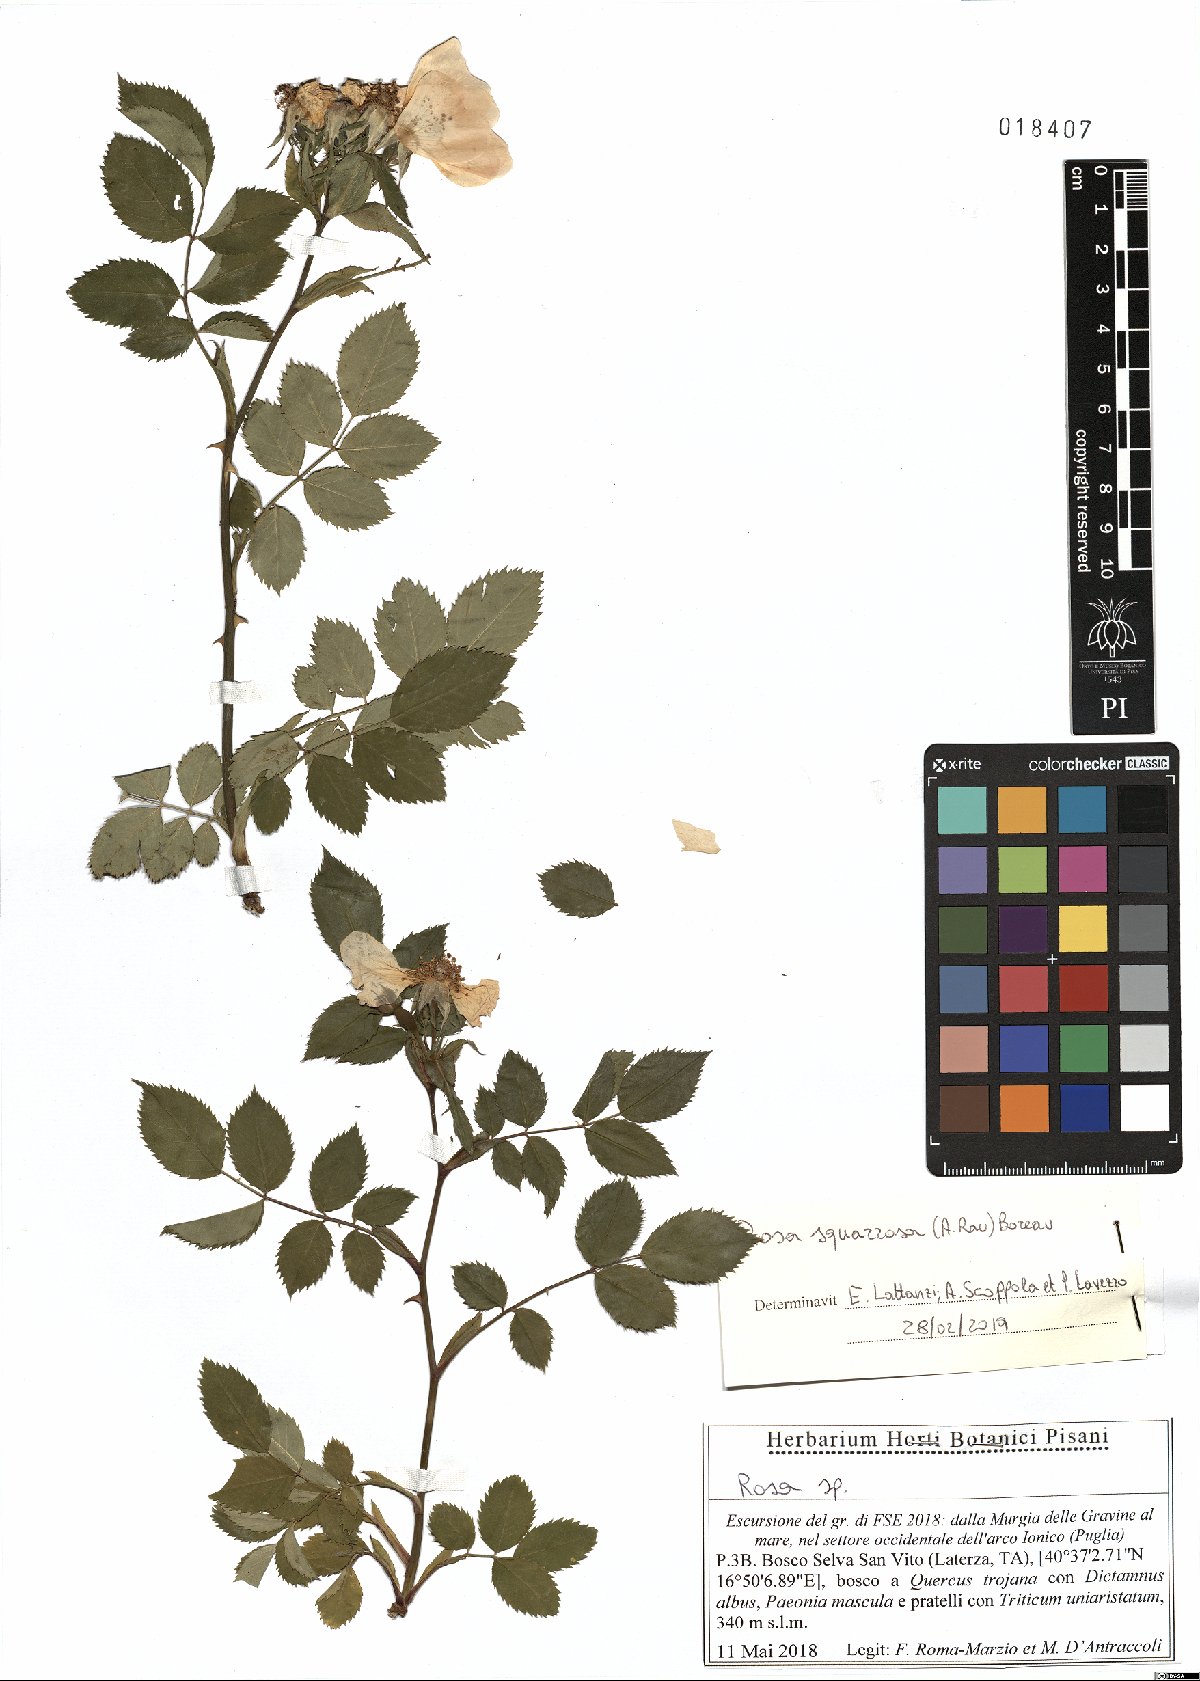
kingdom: Plantae
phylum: Tracheophyta
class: Magnoliopsida
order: Rosales
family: Rosaceae
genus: Rosa
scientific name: Rosa canina
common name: Dog rose
